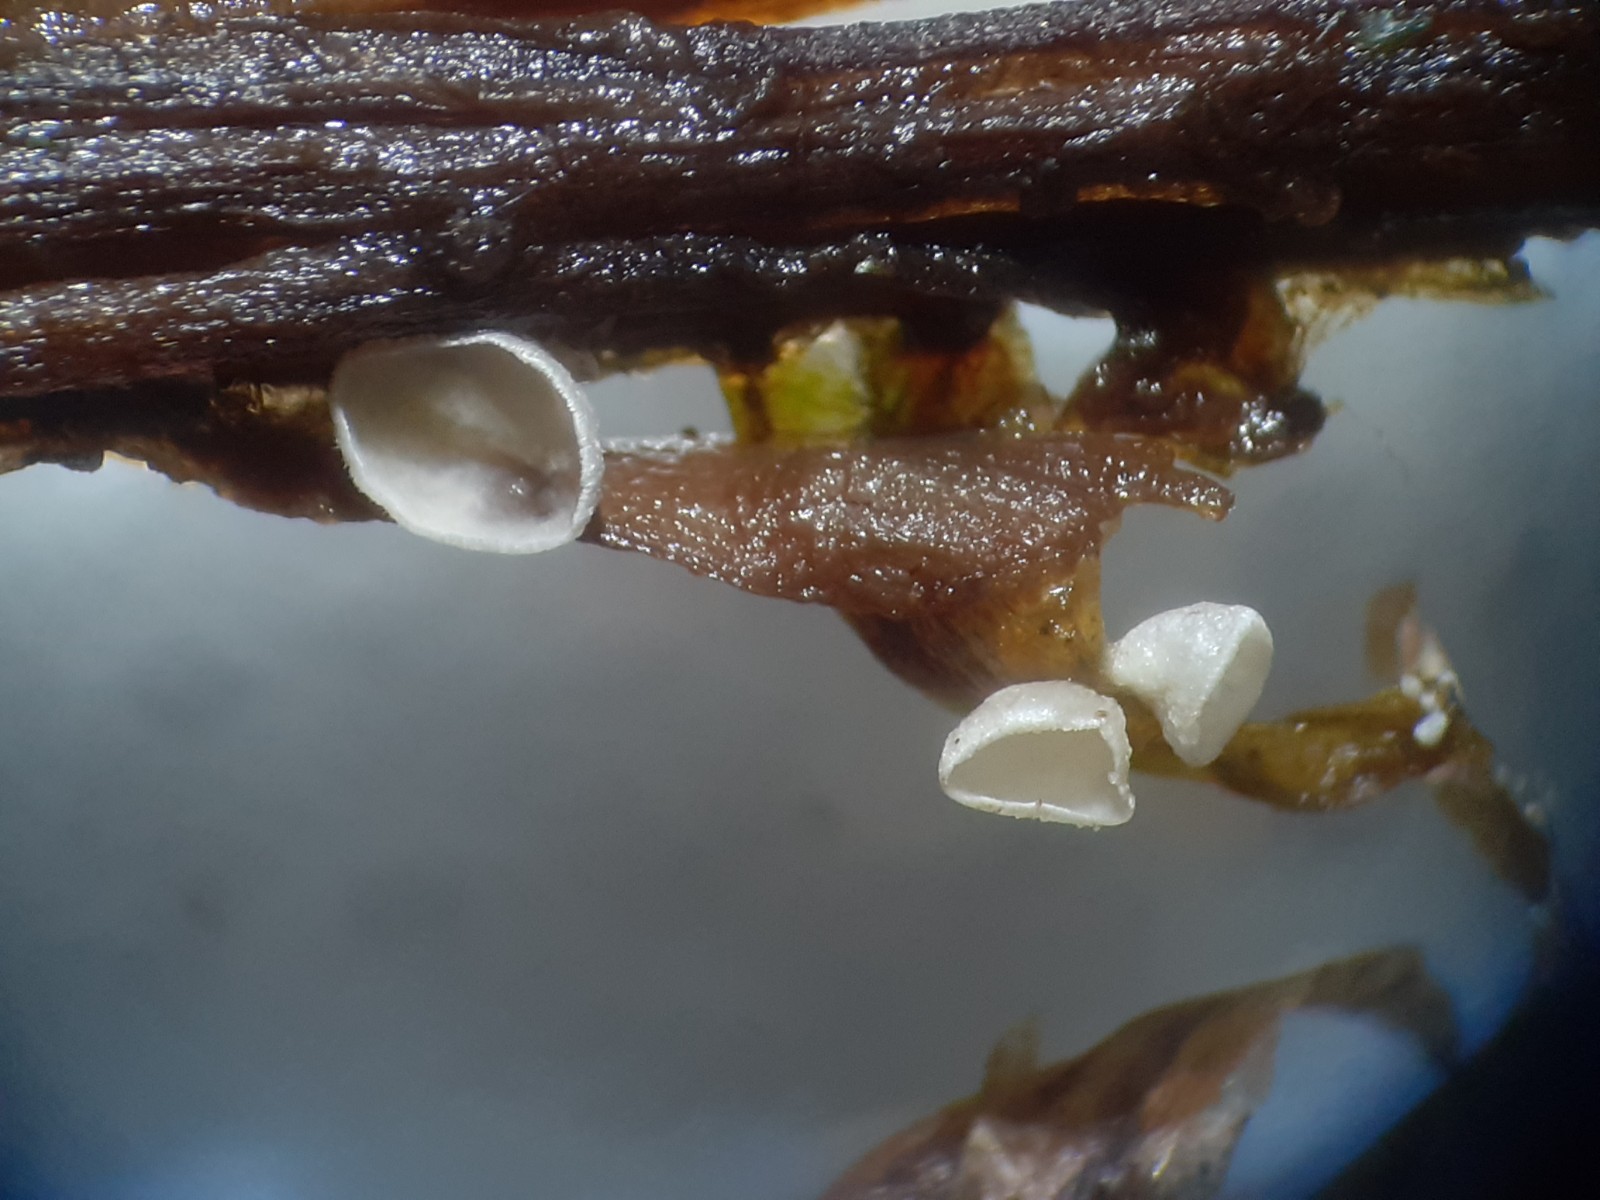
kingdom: Fungi
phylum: Basidiomycota
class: Agaricomycetes
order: Agaricales
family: Hygrophoraceae
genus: Arrhenia
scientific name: Arrhenia retiruga
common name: lille fontænehat
